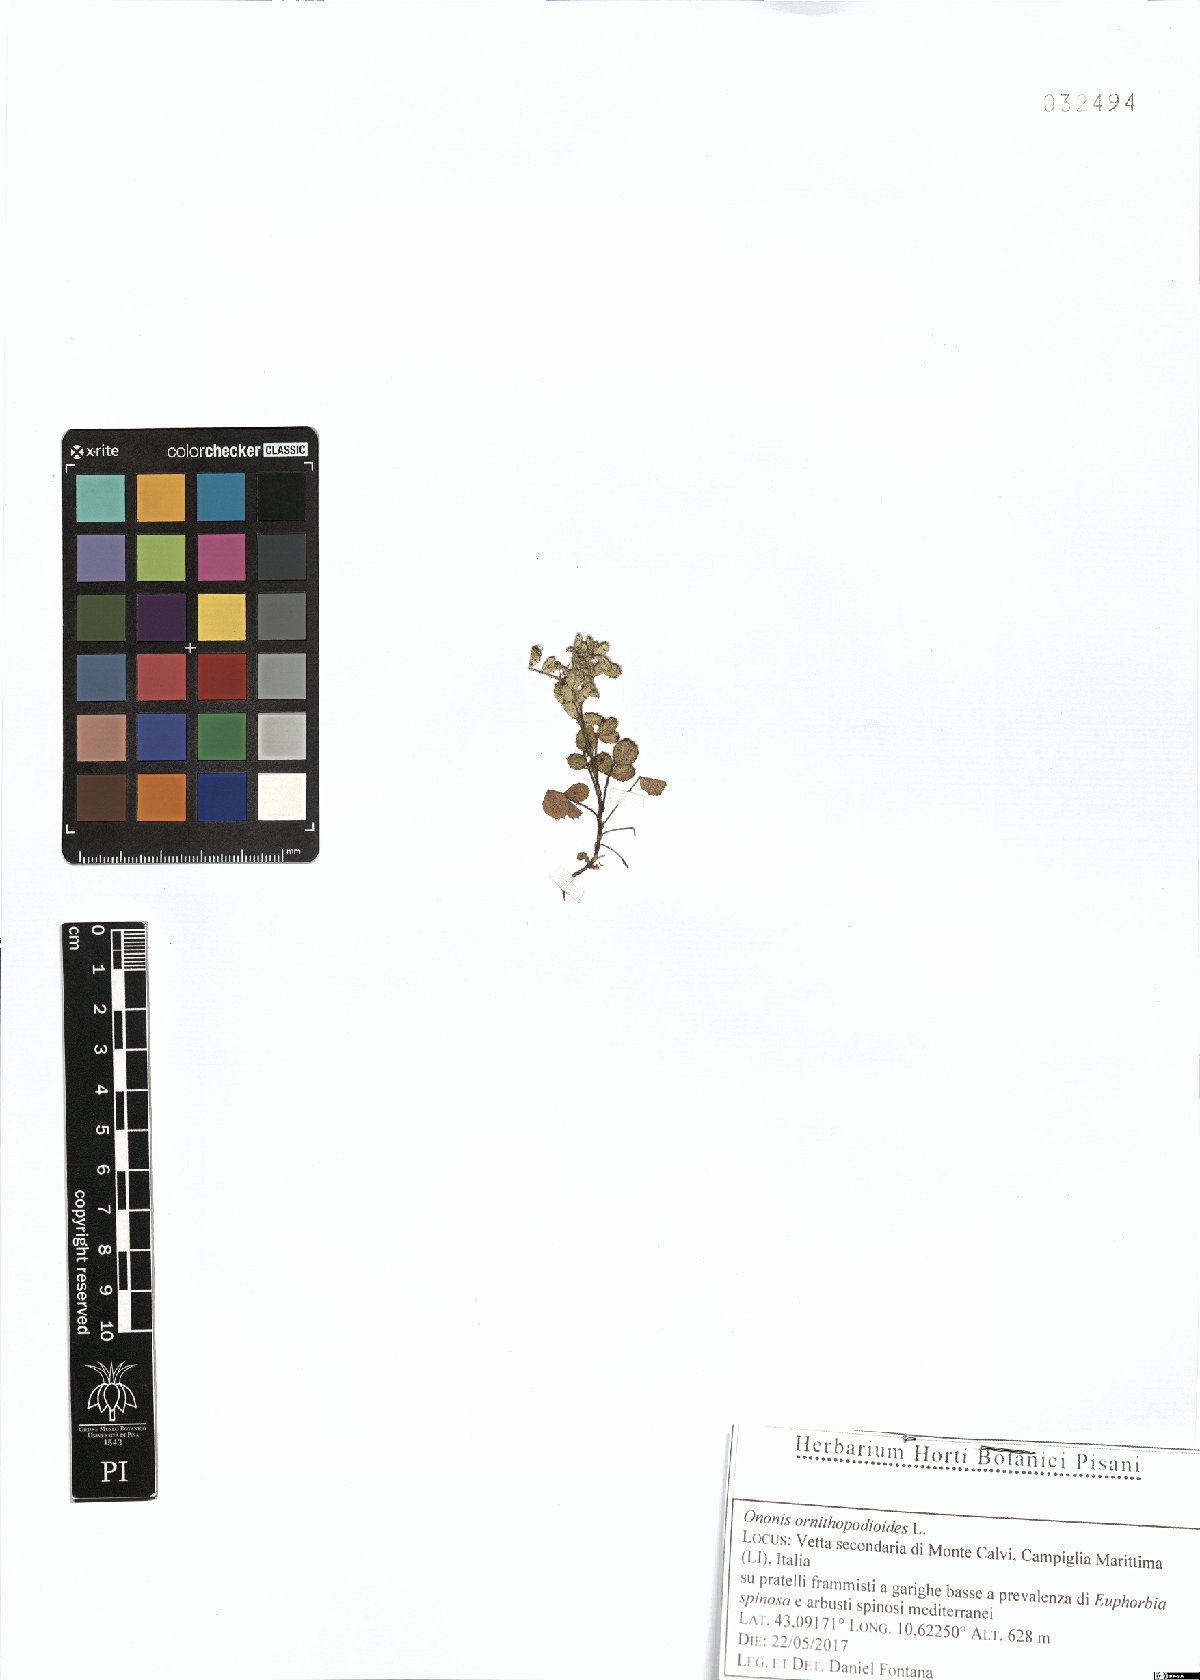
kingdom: Plantae
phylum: Tracheophyta
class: Magnoliopsida
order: Fabales
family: Fabaceae
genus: Ononis
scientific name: Ononis ornithopodioides
